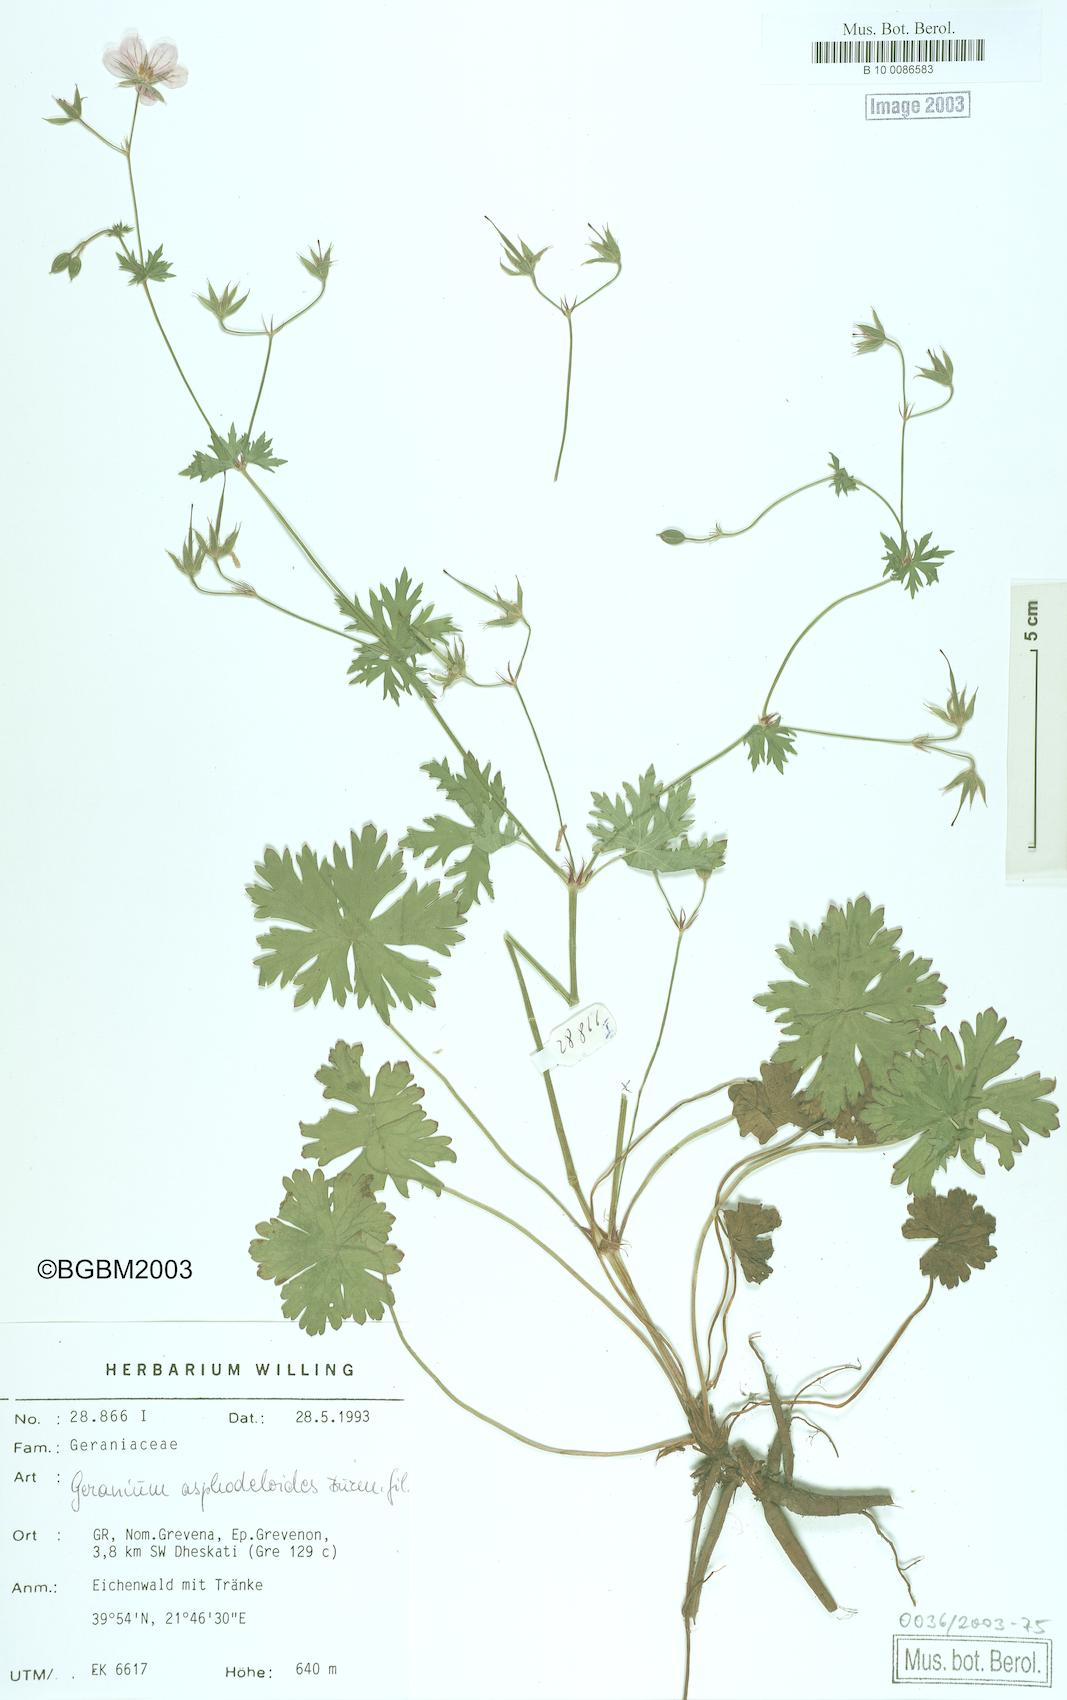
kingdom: Plantae
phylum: Tracheophyta
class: Magnoliopsida
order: Geraniales
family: Geraniaceae
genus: Geranium
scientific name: Geranium asphodeloides
